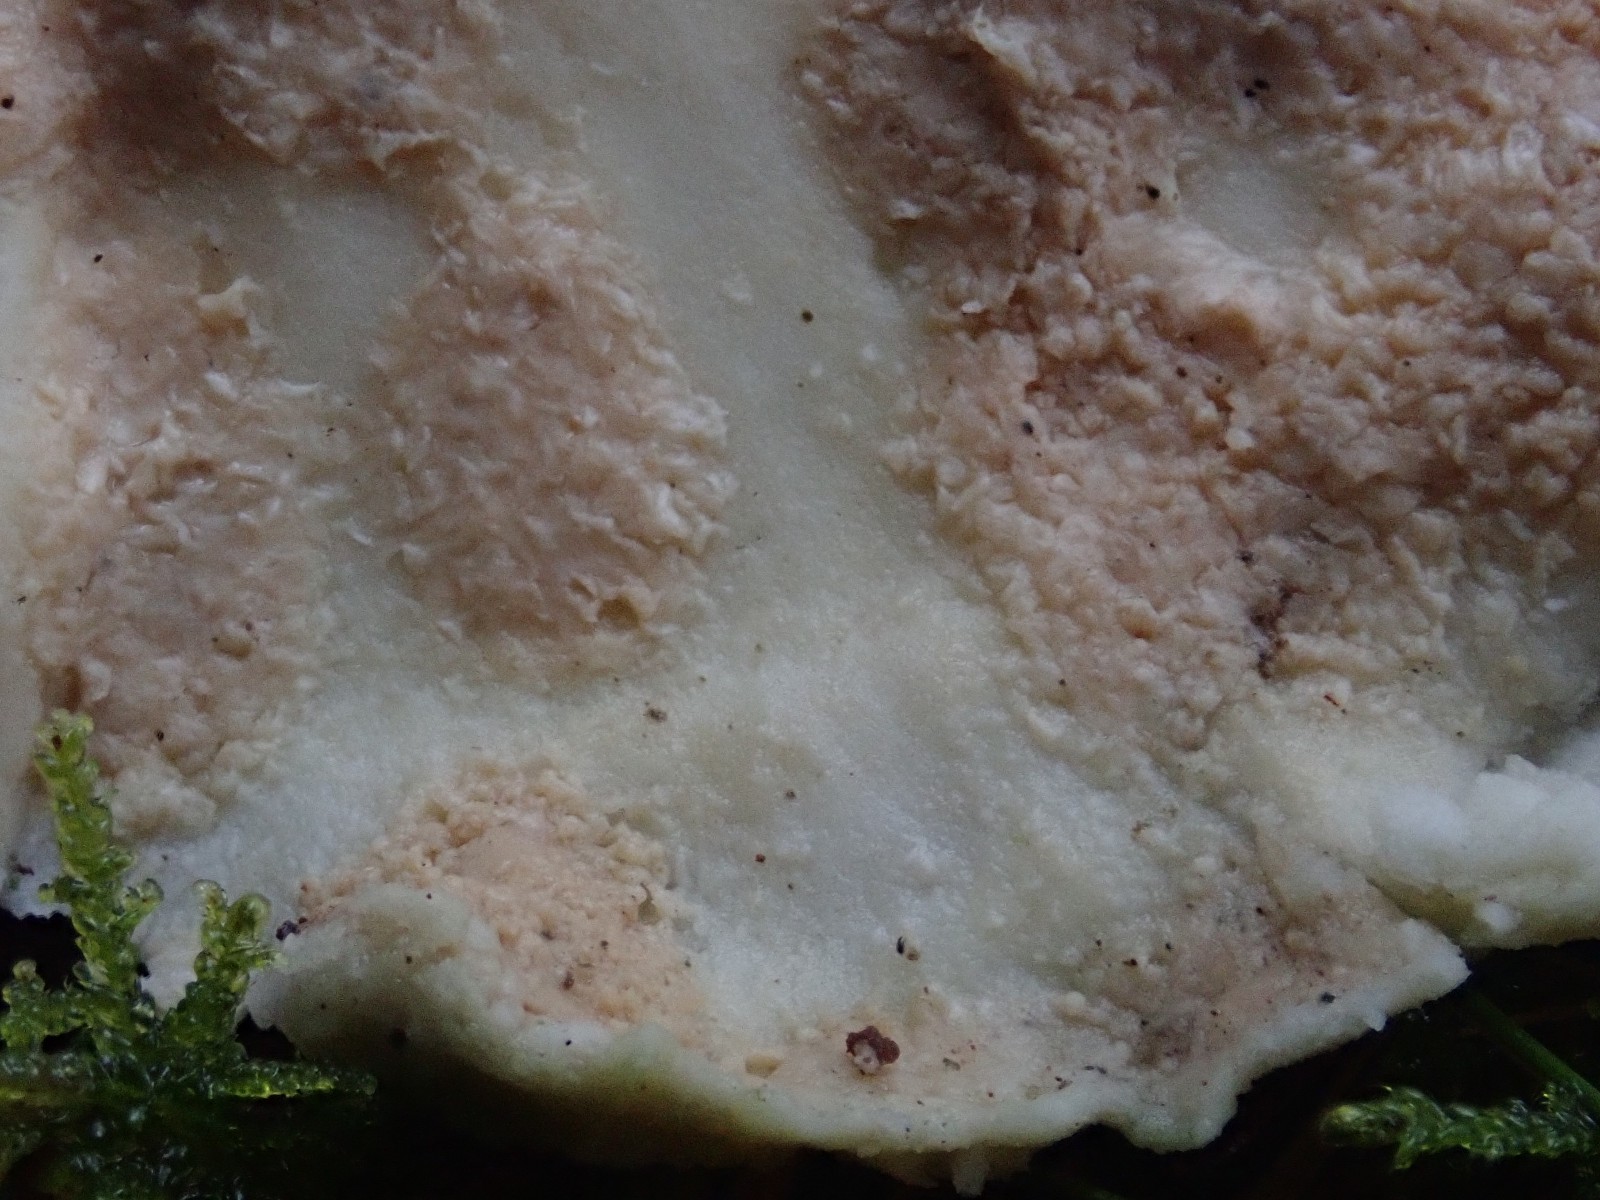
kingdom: Fungi
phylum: Basidiomycota
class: Agaricomycetes
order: Polyporales
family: Dacryobolaceae
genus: Oligoporus
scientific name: Oligoporus
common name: kødporesvamp
